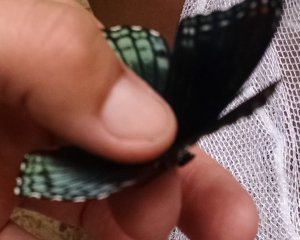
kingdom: Animalia
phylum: Arthropoda
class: Insecta
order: Lepidoptera
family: Nymphalidae
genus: Limenitis
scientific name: Limenitis astyanax
